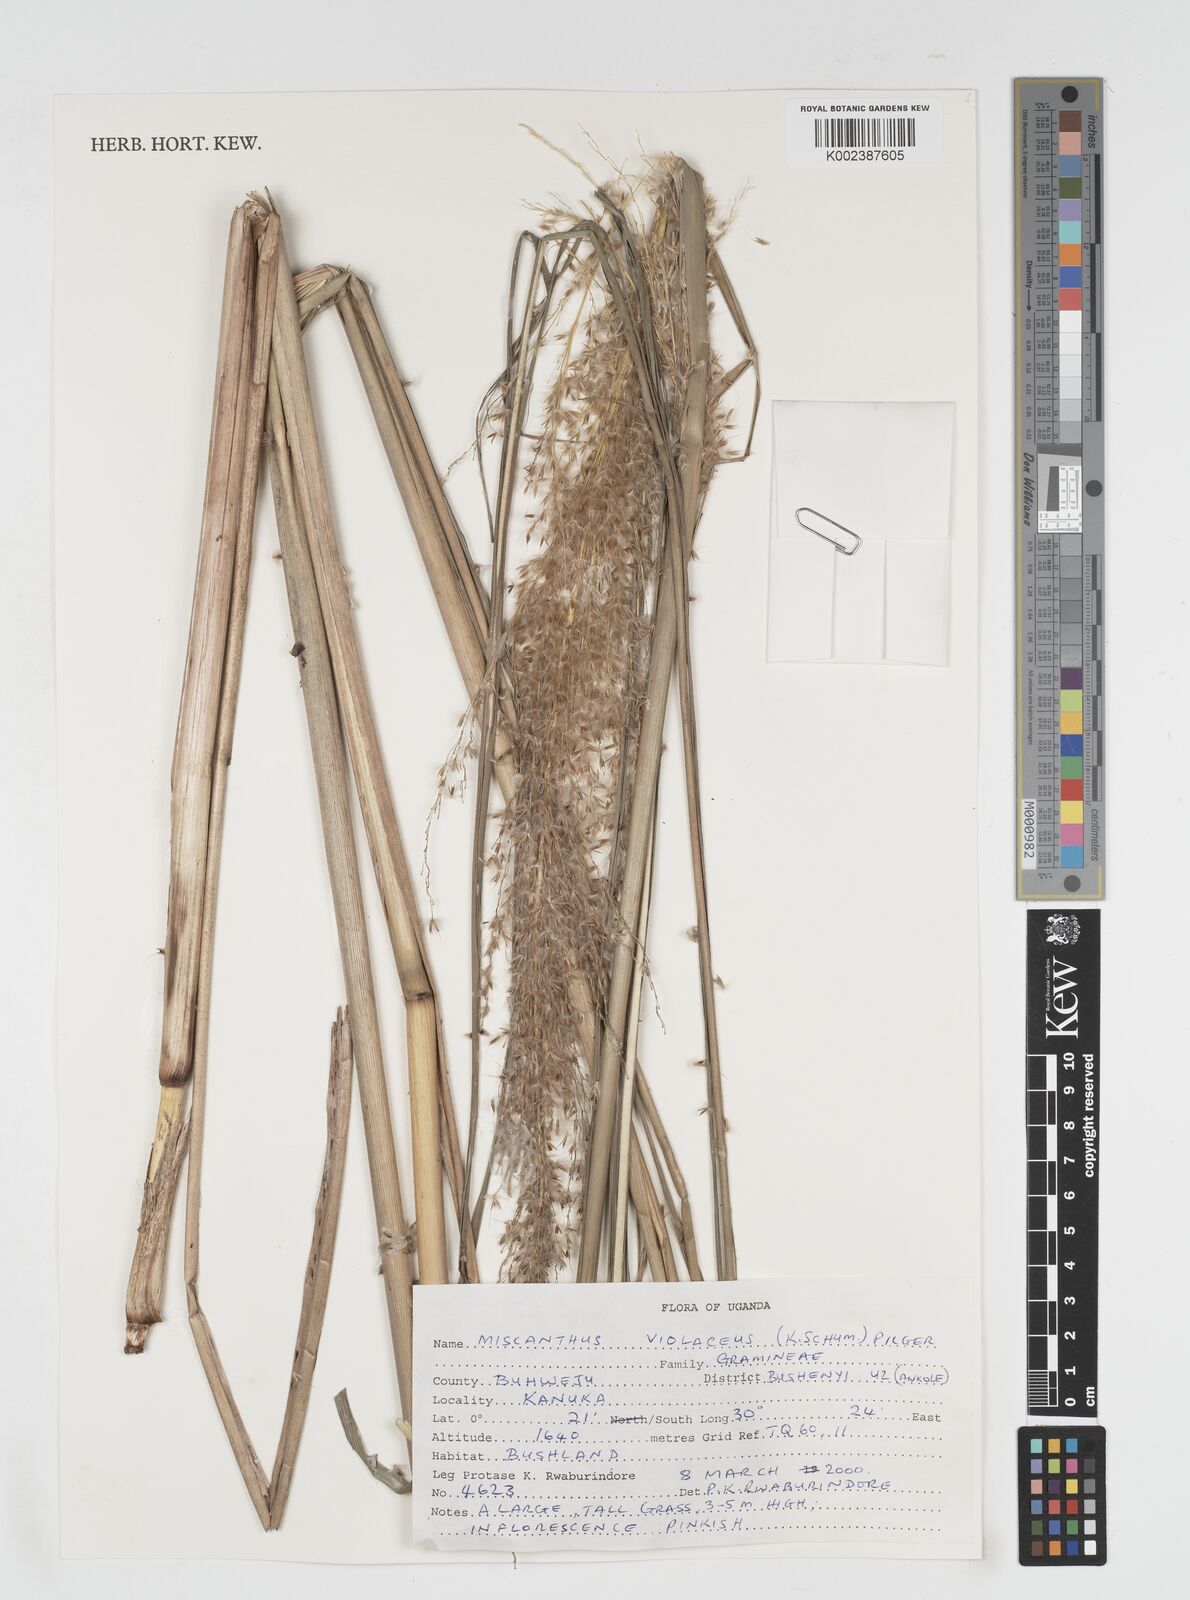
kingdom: Plantae
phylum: Tracheophyta
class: Liliopsida
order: Poales
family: Poaceae
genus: Miscanthidium
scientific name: Miscanthidium violaceum
